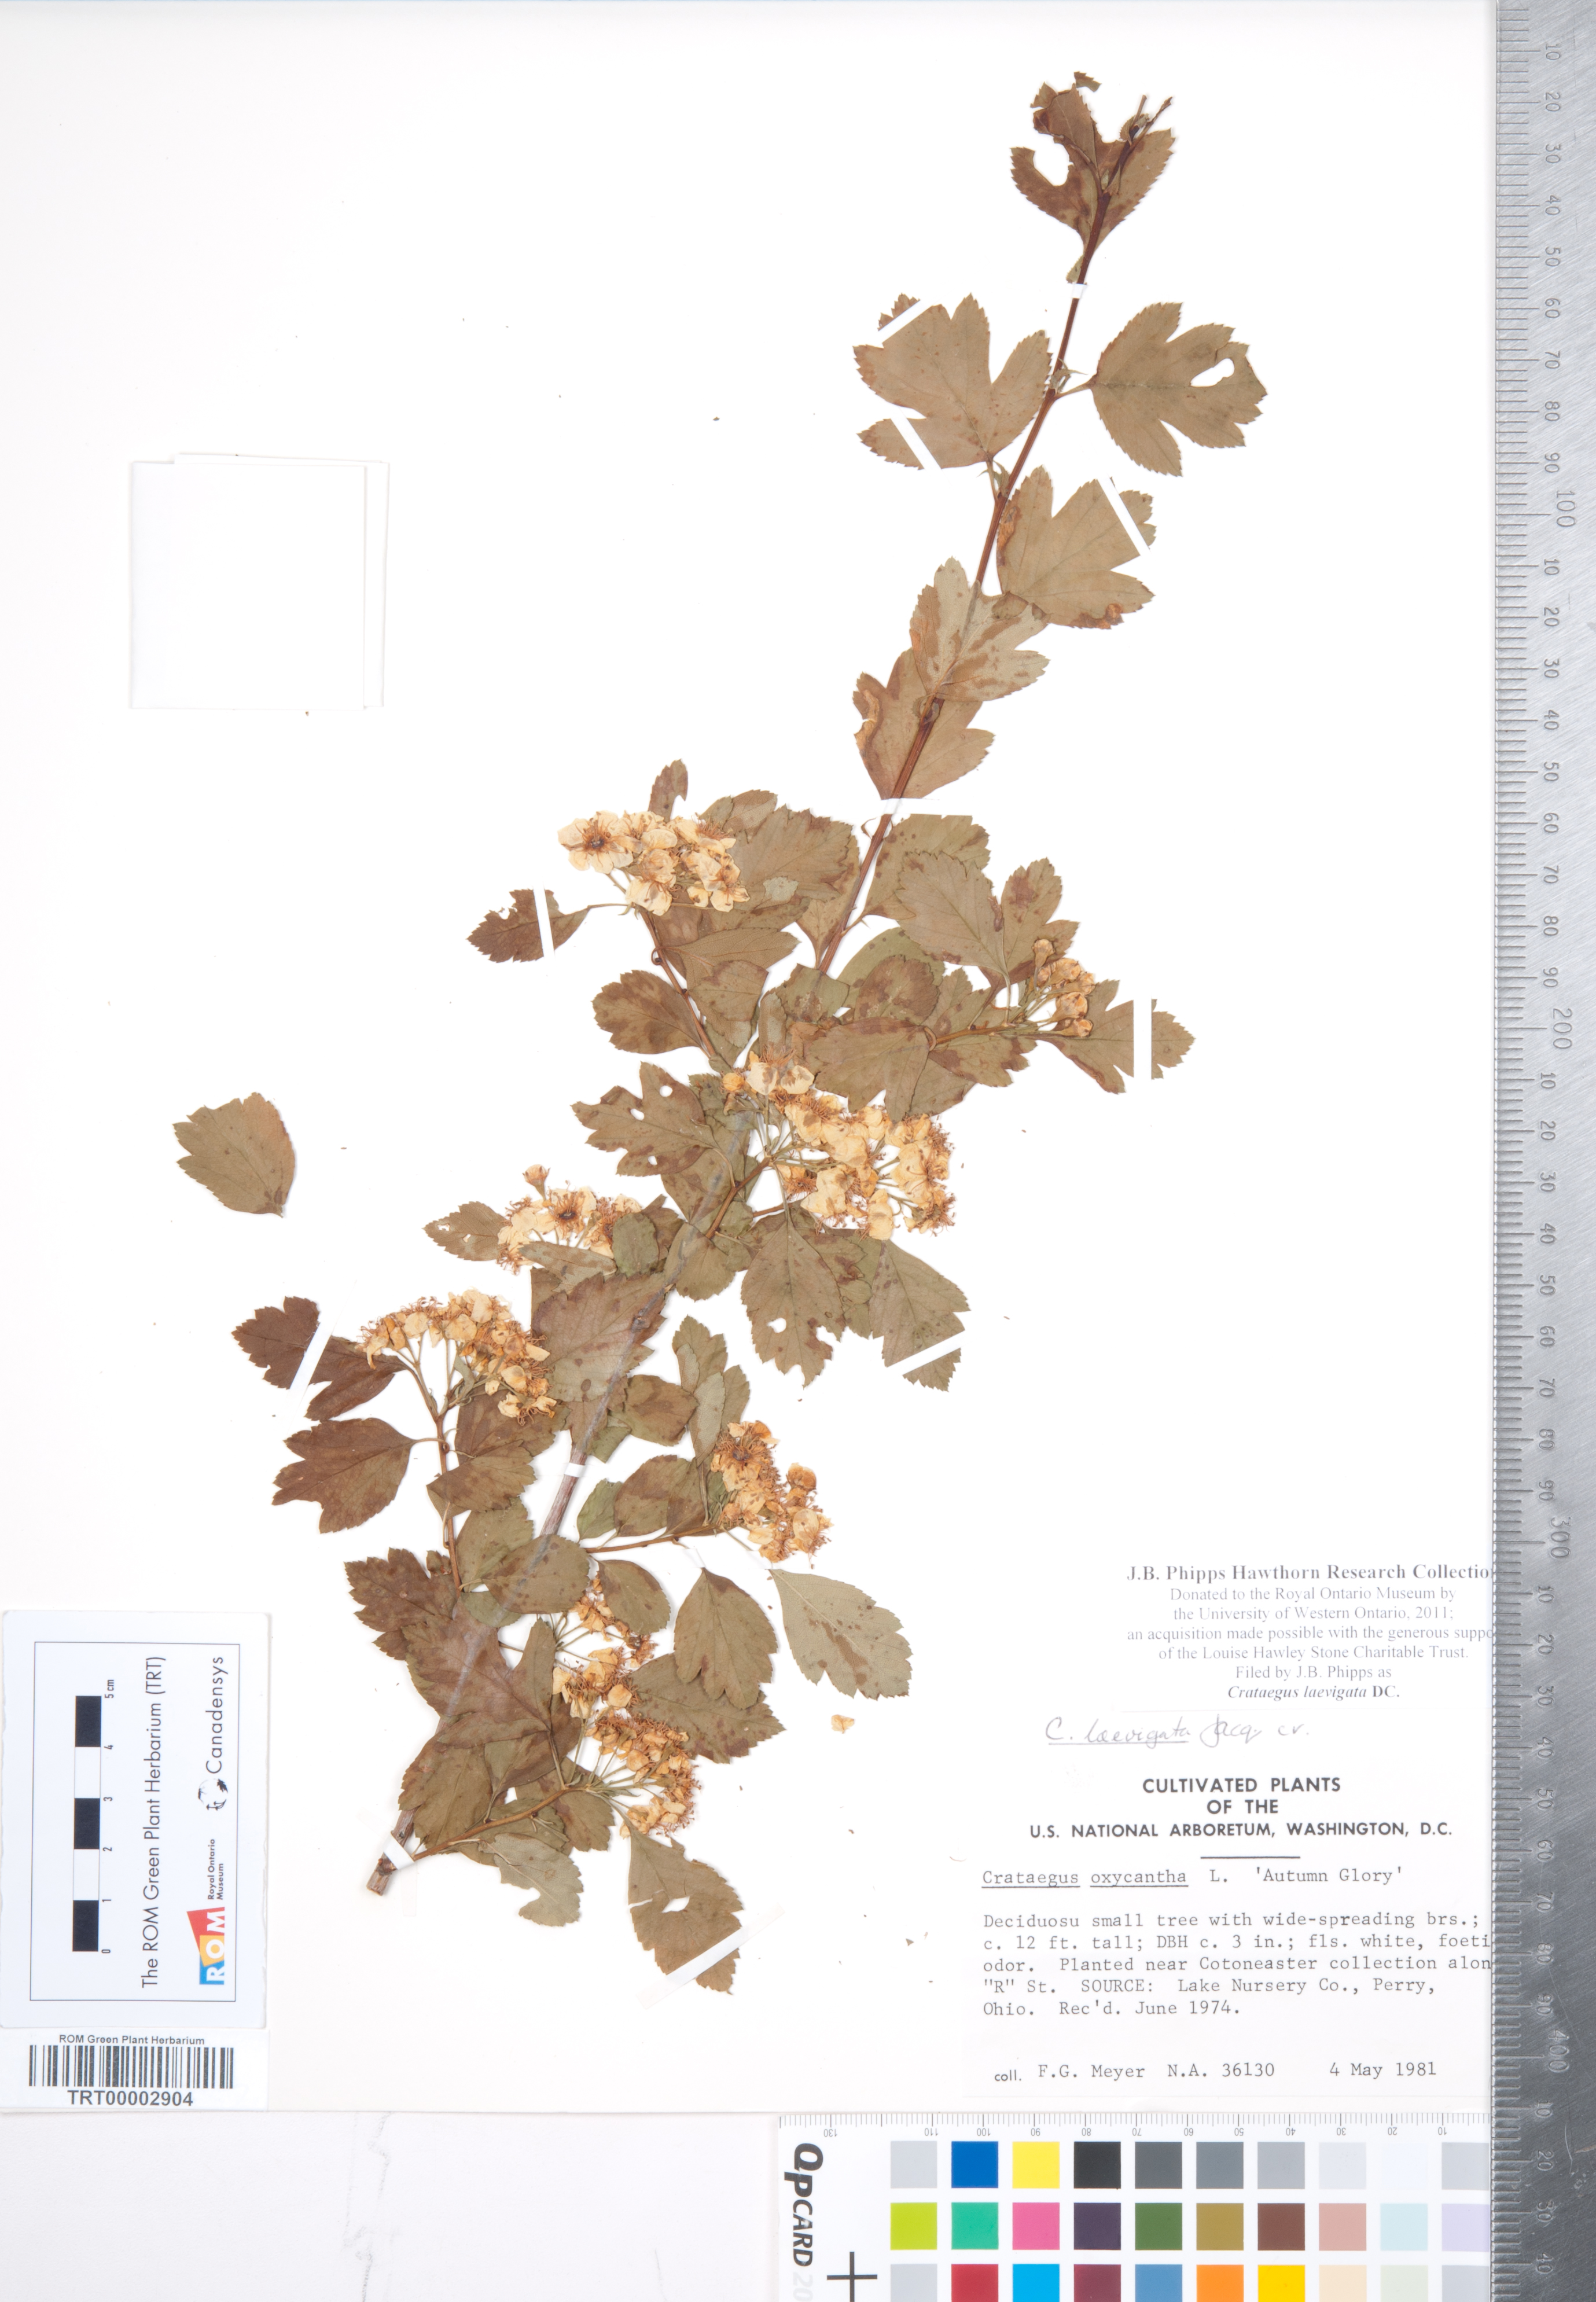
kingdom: Plantae
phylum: Tracheophyta
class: Magnoliopsida
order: Rosales
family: Rosaceae
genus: Crataegus
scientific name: Crataegus laevigata
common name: Midland hawthorn
